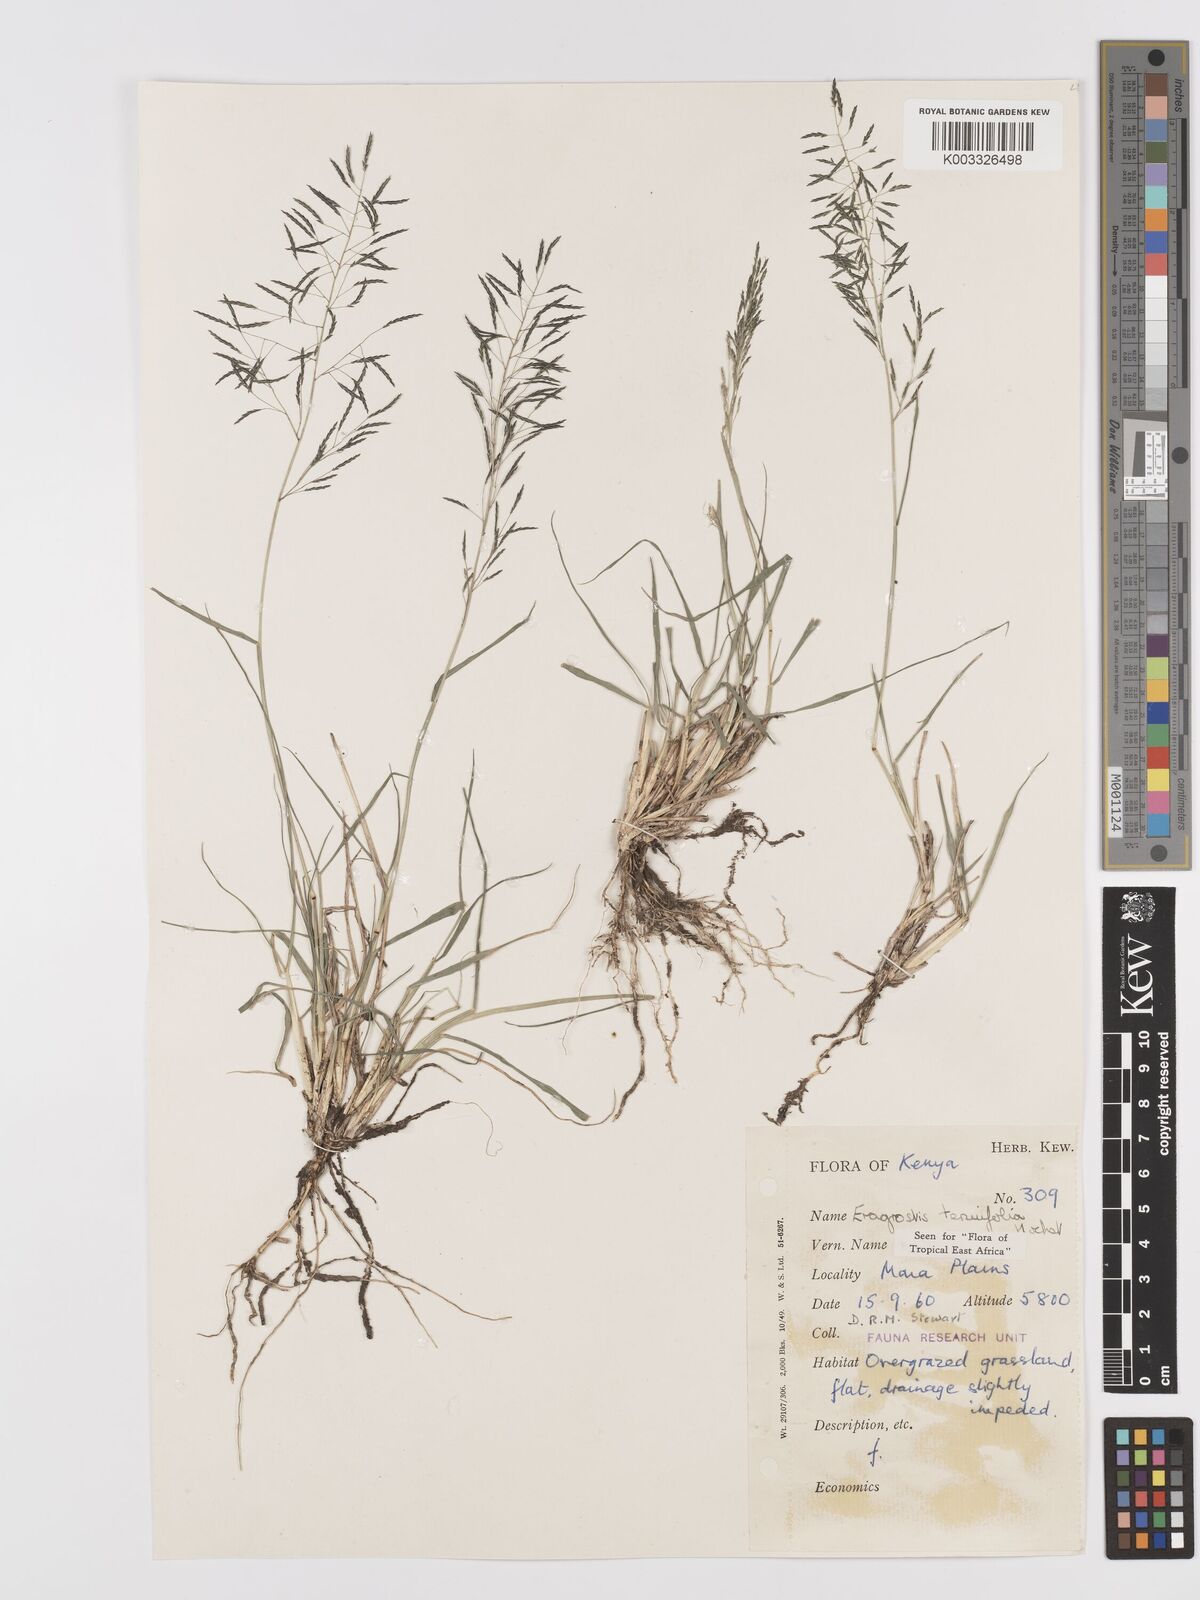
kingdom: Plantae
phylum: Tracheophyta
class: Liliopsida
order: Poales
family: Poaceae
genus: Eragrostis
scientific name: Eragrostis tenuifolia
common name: Elastic grass
